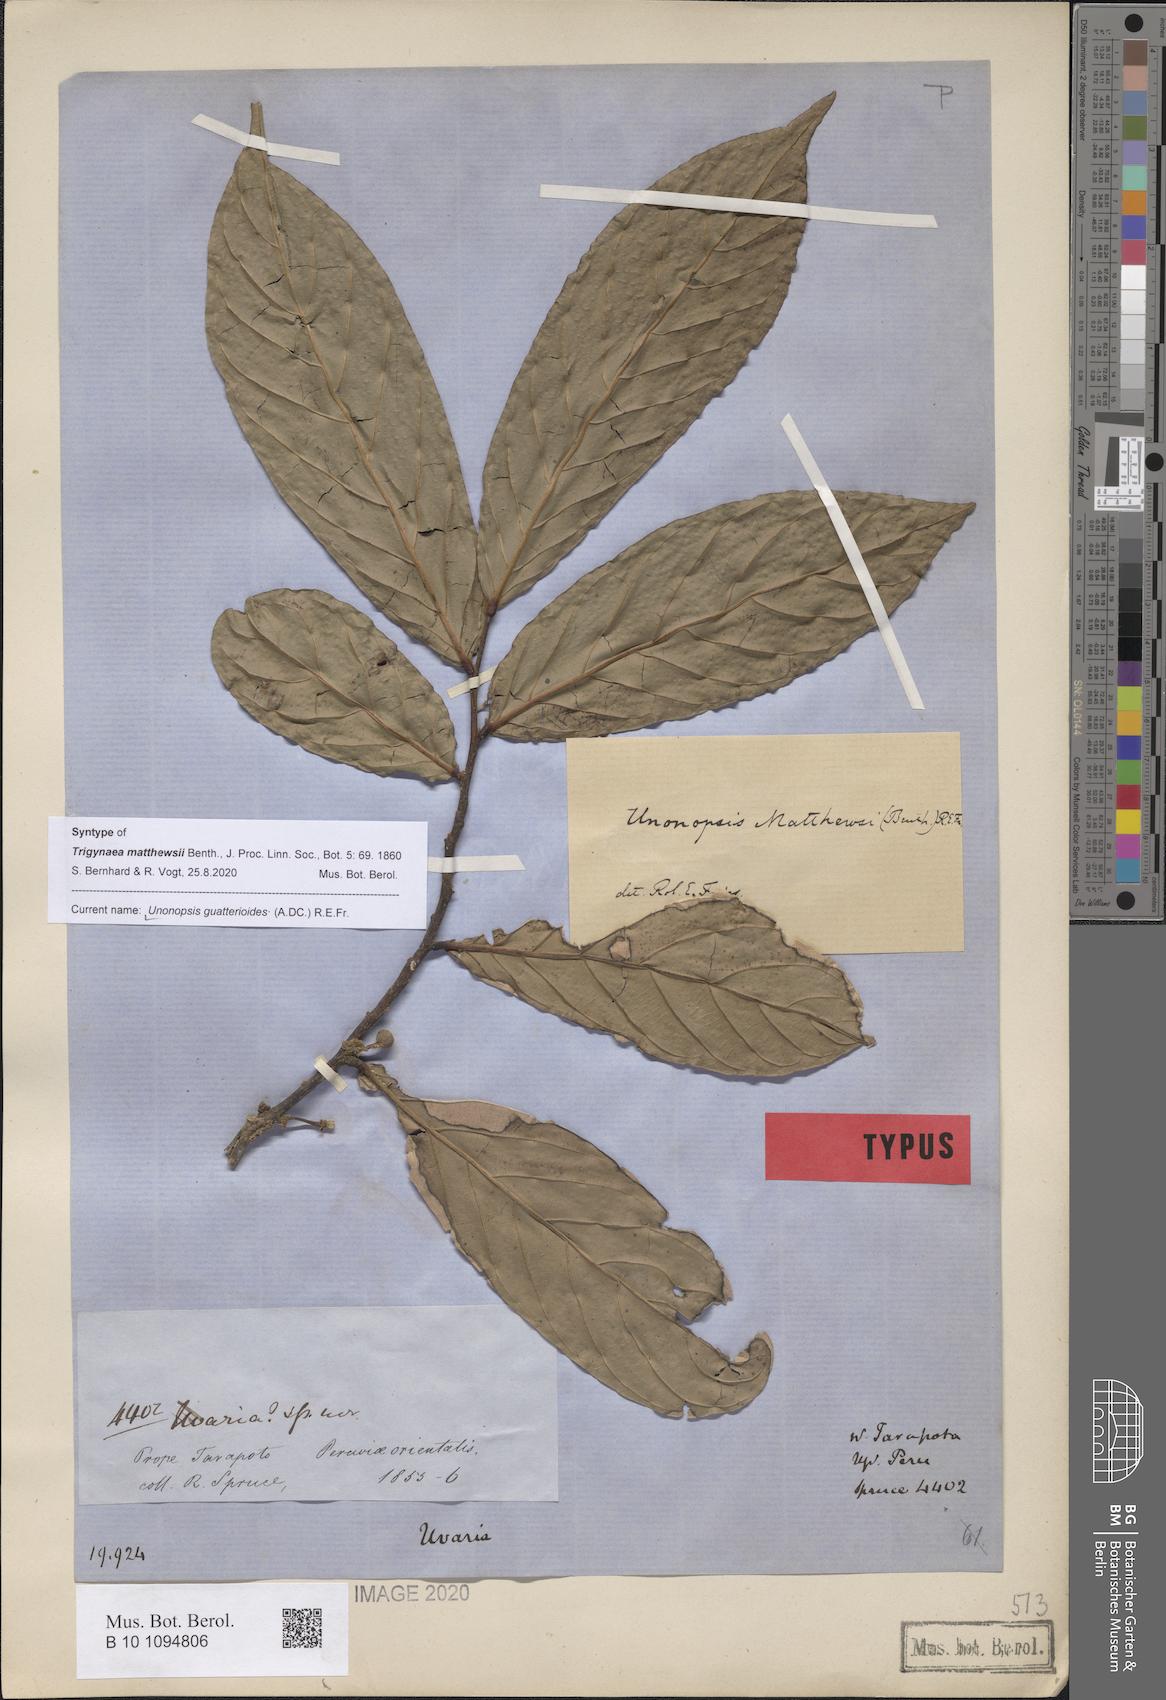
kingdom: Plantae
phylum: Tracheophyta
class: Magnoliopsida
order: Magnoliales
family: Annonaceae
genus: Unonopsis
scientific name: Unonopsis guatterioides
